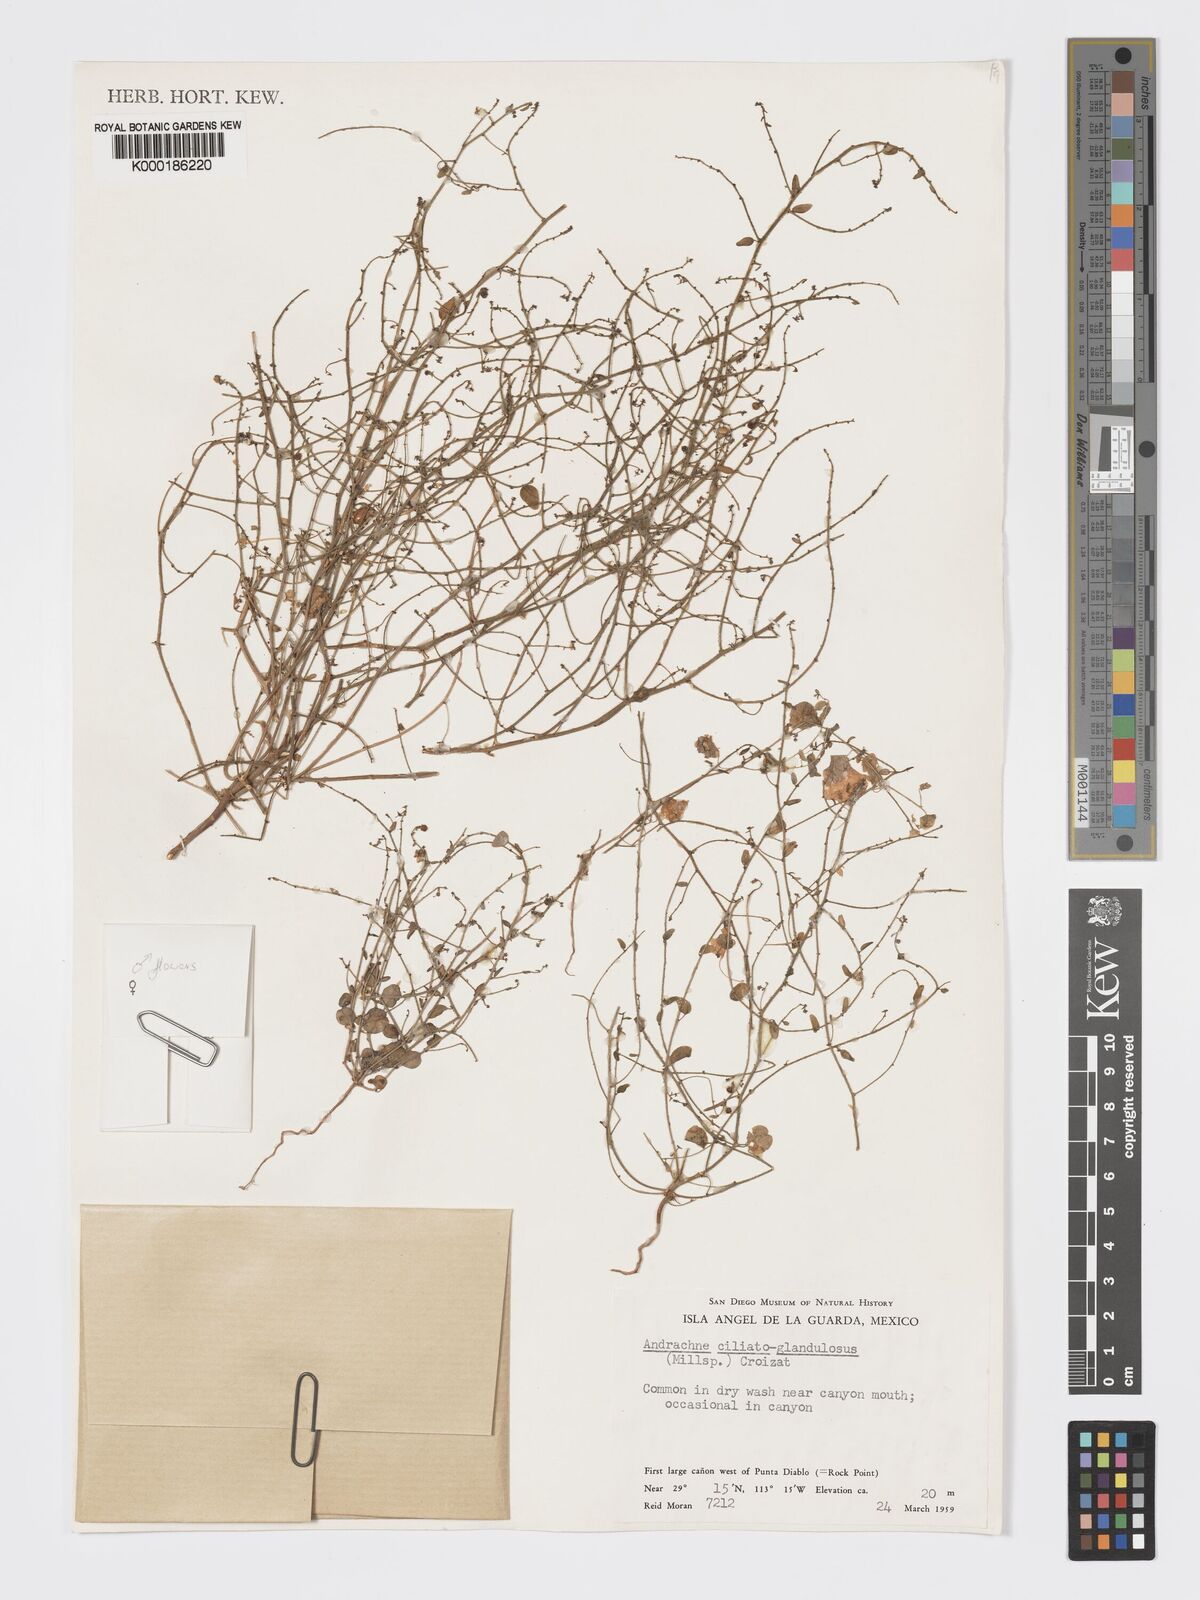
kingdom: Plantae
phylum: Tracheophyta
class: Magnoliopsida
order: Malpighiales
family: Phyllanthaceae
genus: Andrachne
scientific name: Andrachne microphylla
